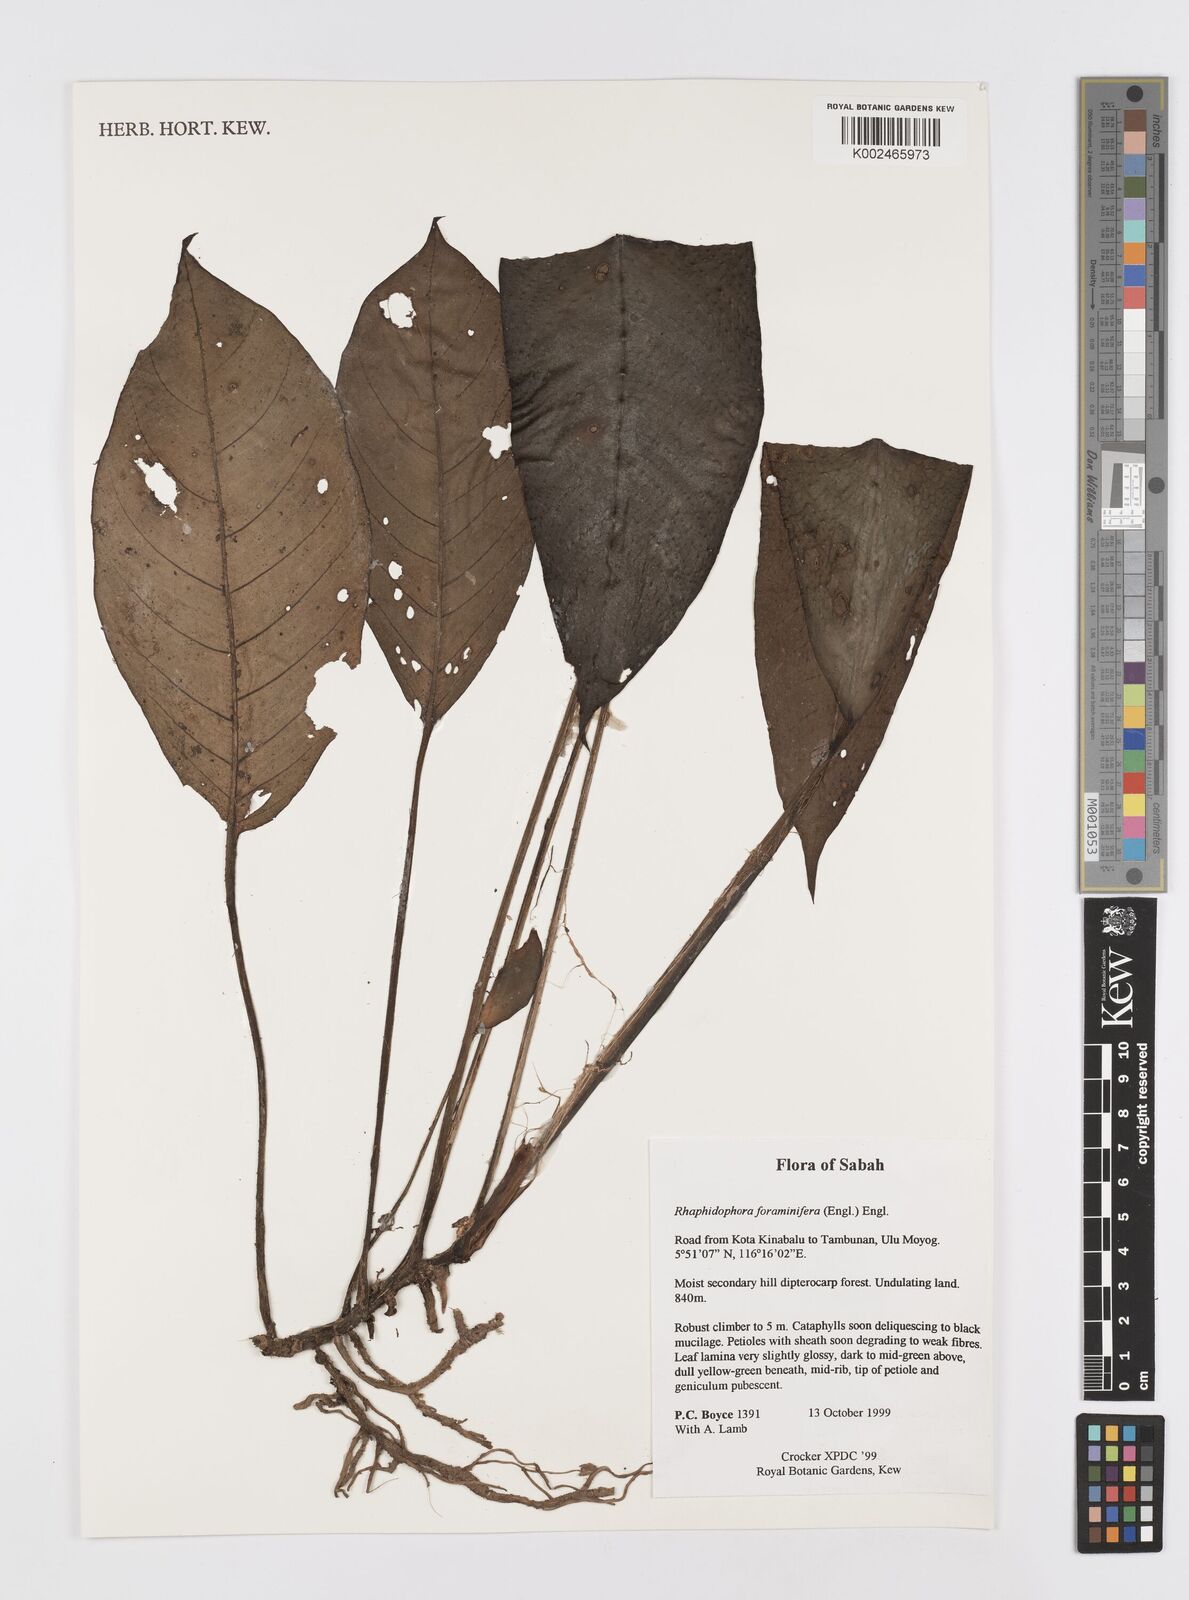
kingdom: Plantae
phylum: Tracheophyta
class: Liliopsida
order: Alismatales
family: Araceae
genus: Rhaphidophora
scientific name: Rhaphidophora foraminifera
